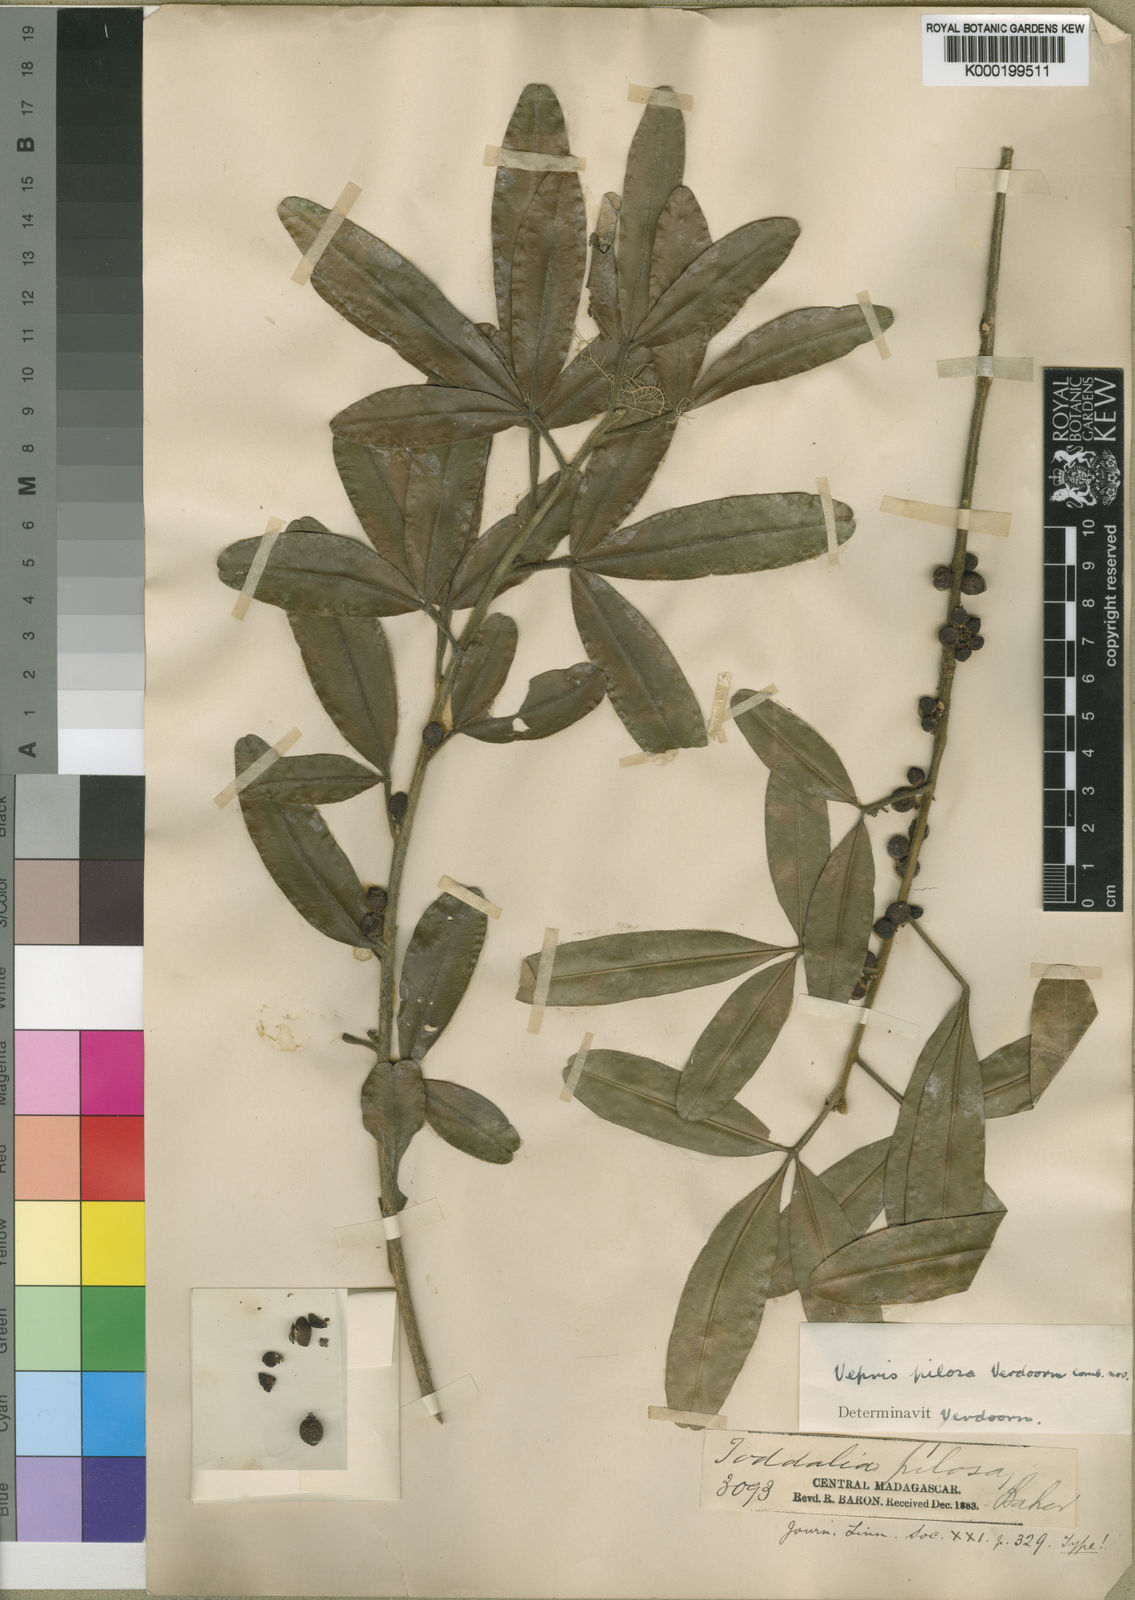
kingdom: Plantae
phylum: Tracheophyta
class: Magnoliopsida
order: Sapindales
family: Rutaceae
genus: Vepris
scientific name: Vepris
